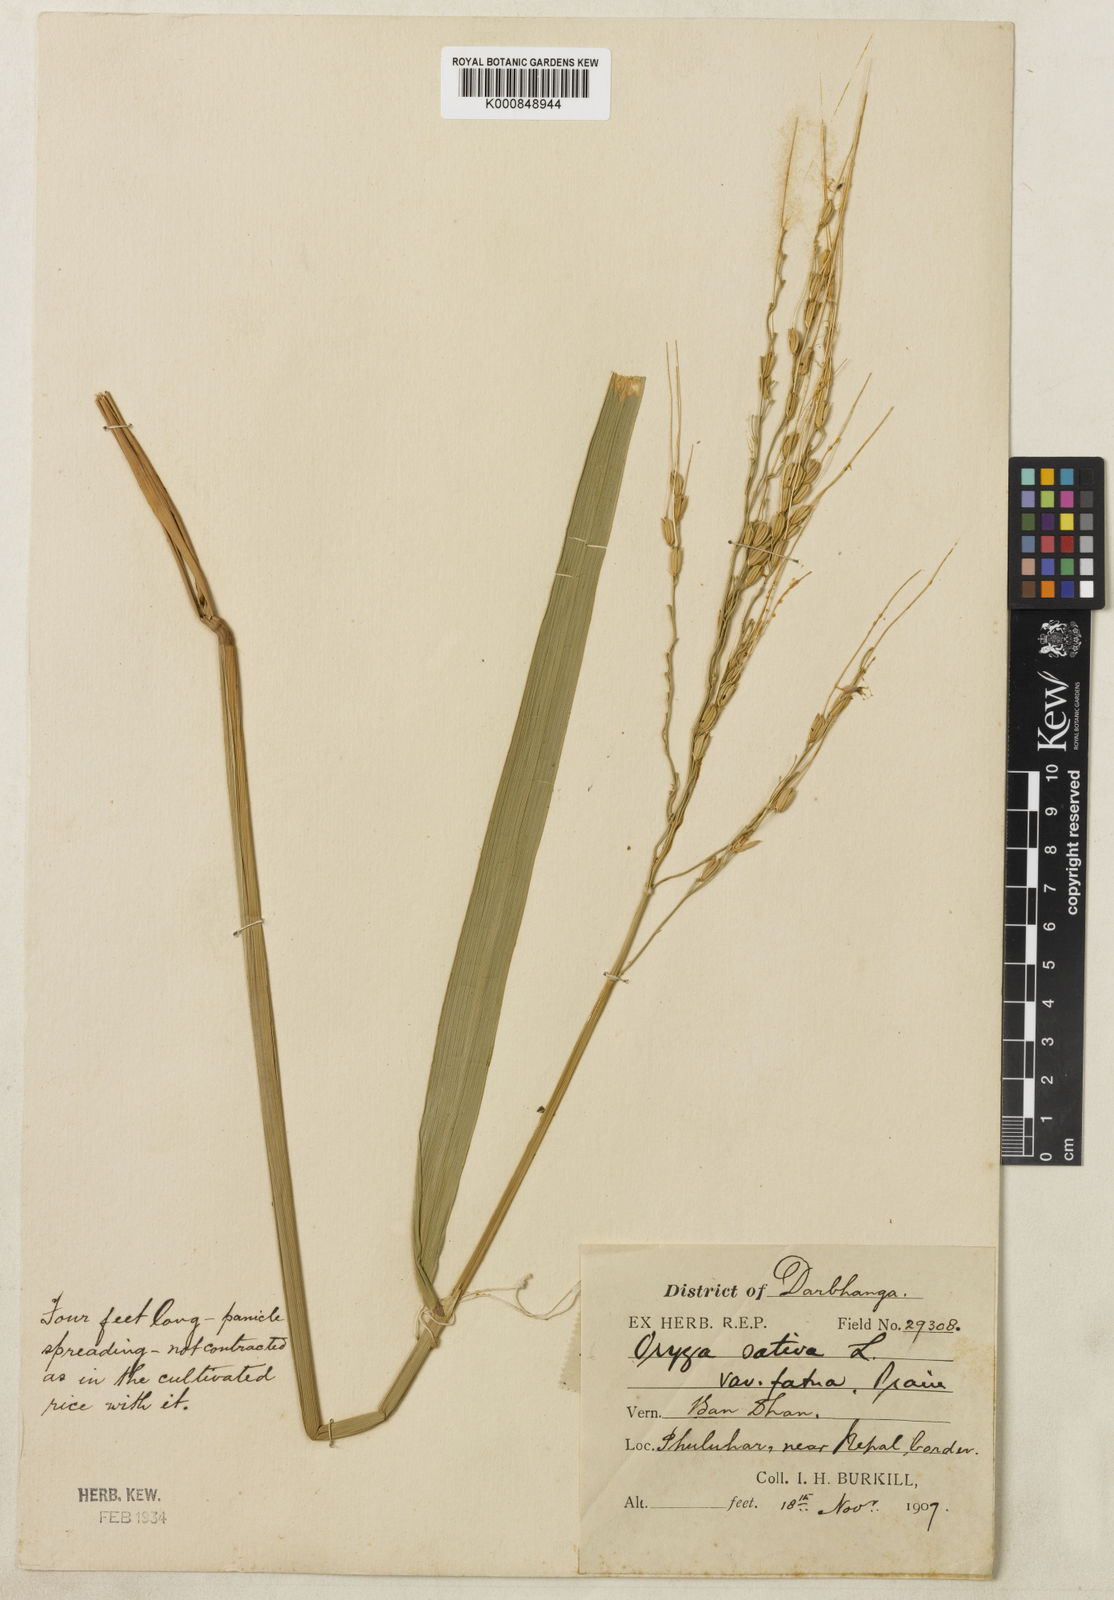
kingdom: Plantae
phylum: Tracheophyta
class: Liliopsida
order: Poales
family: Poaceae
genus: Oryza
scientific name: Oryza rufipogon
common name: Red rice
